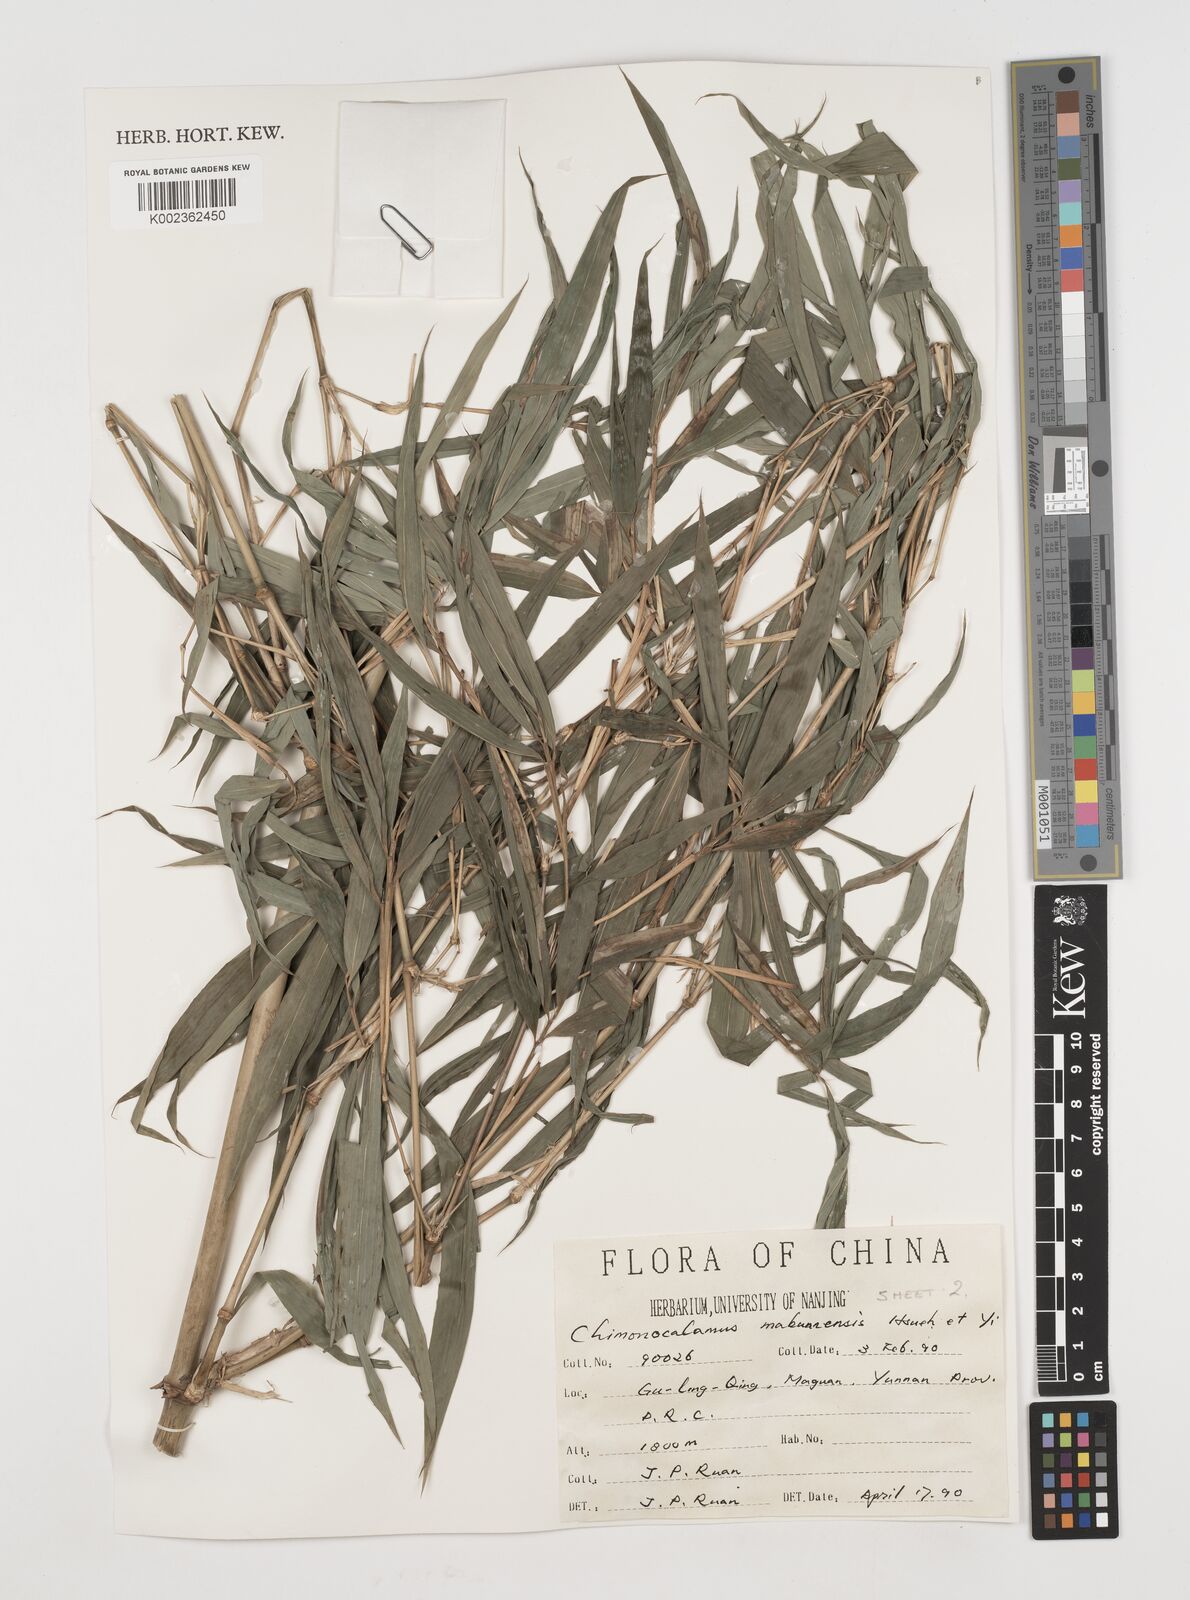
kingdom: Plantae
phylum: Tracheophyta
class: Liliopsida
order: Poales
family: Poaceae
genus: Chimonocalamus
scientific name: Chimonocalamus makuanensis
